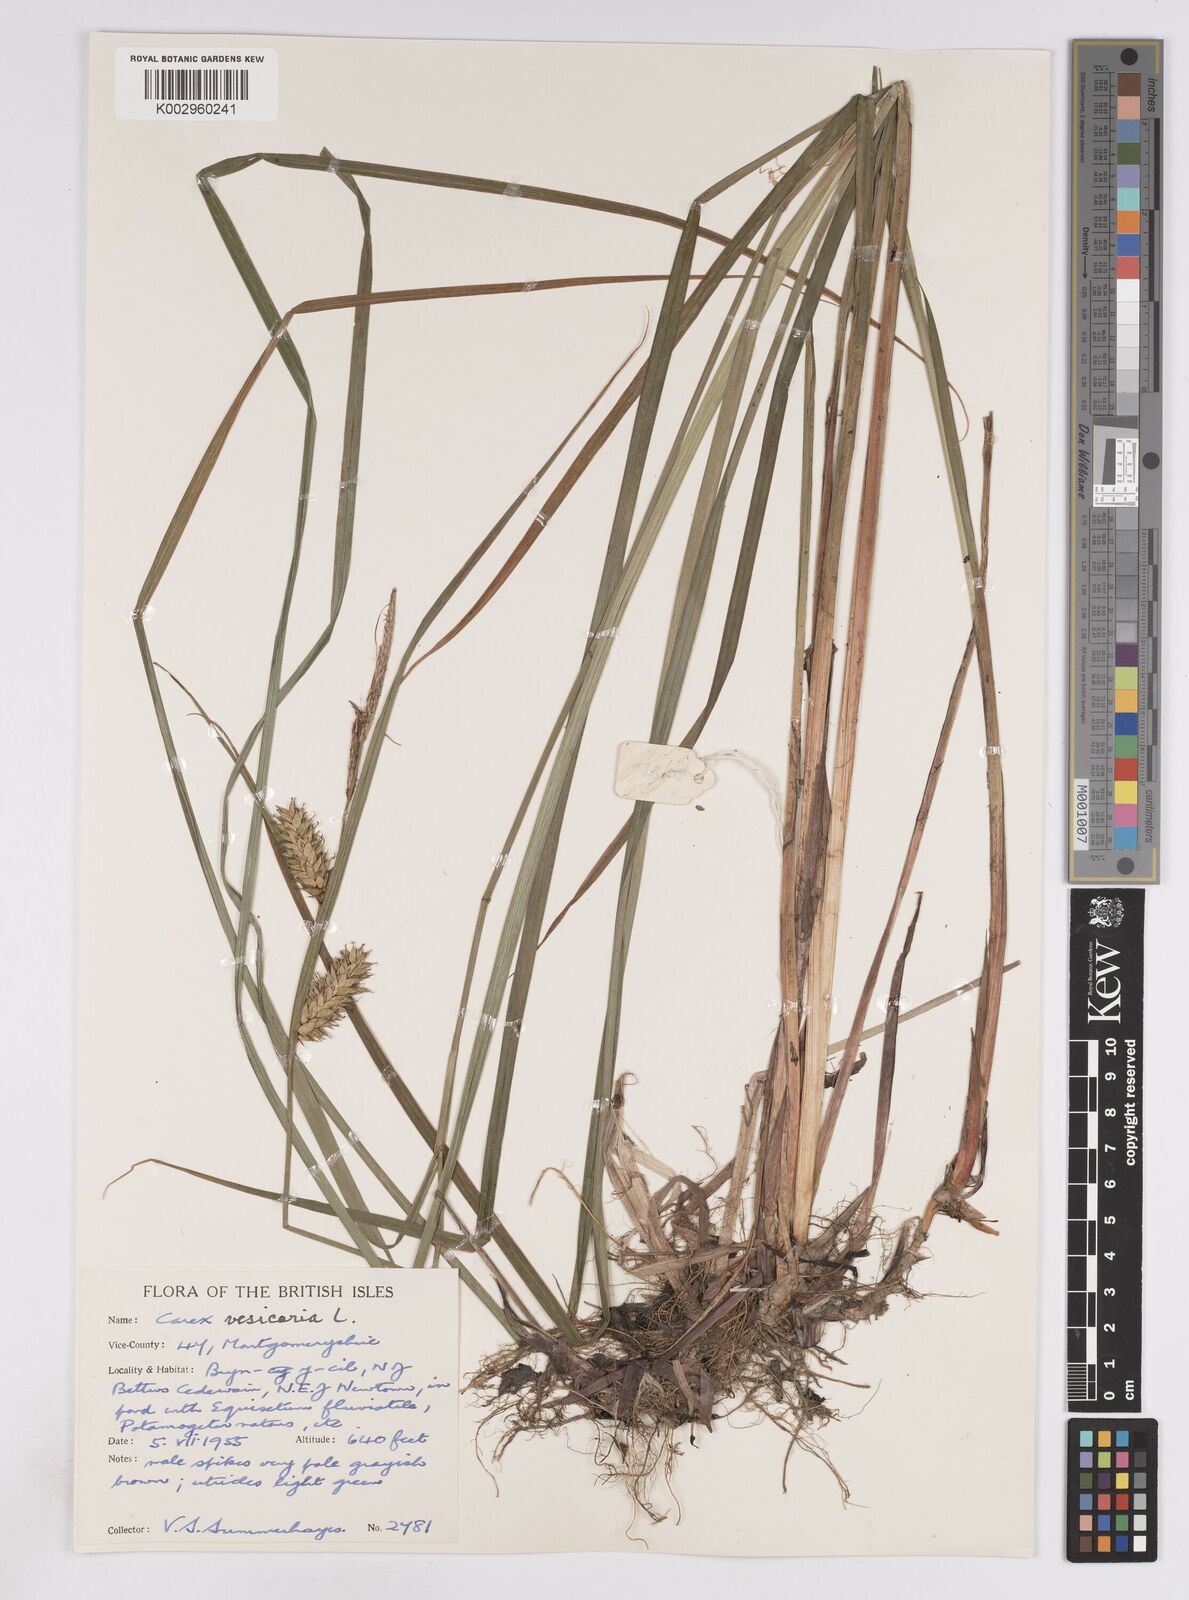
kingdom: Plantae
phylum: Tracheophyta
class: Liliopsida
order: Poales
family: Cyperaceae
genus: Carex
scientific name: Carex vesicaria
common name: Bladder-sedge
